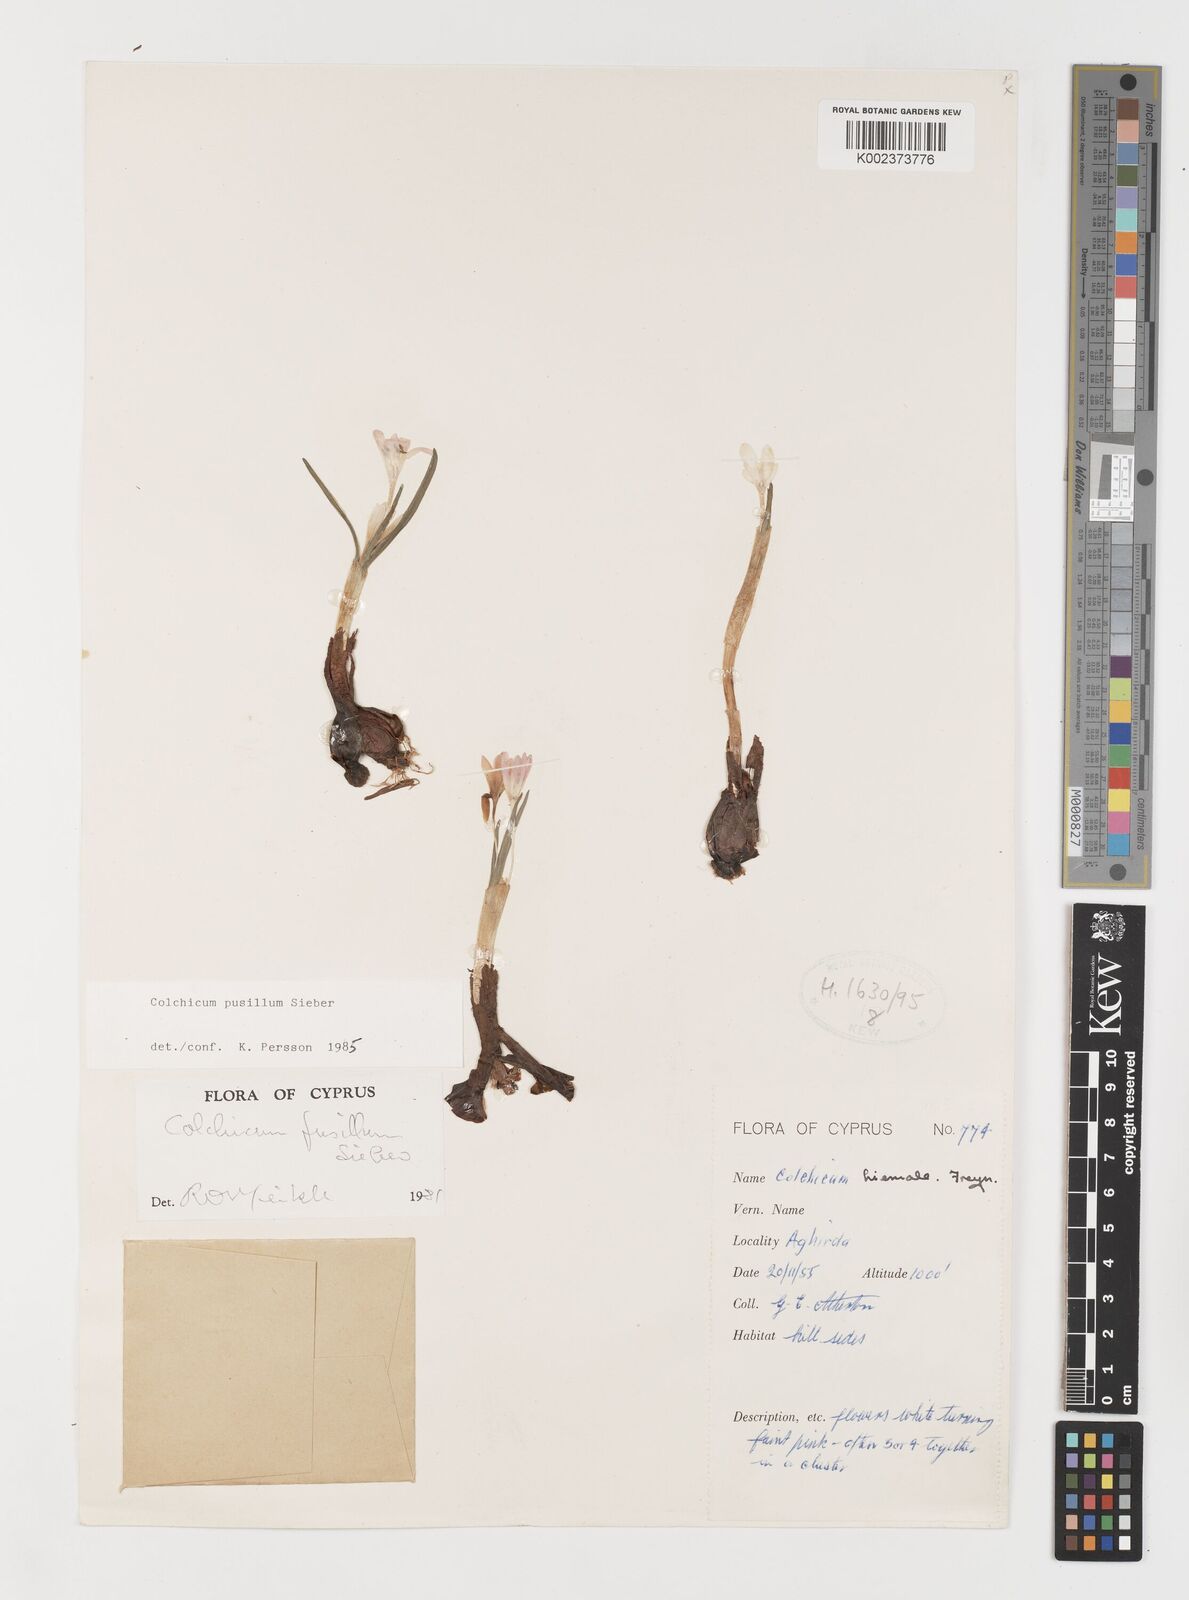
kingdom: Plantae
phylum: Tracheophyta
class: Liliopsida
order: Liliales
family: Colchicaceae
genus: Colchicum
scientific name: Colchicum pusillum
